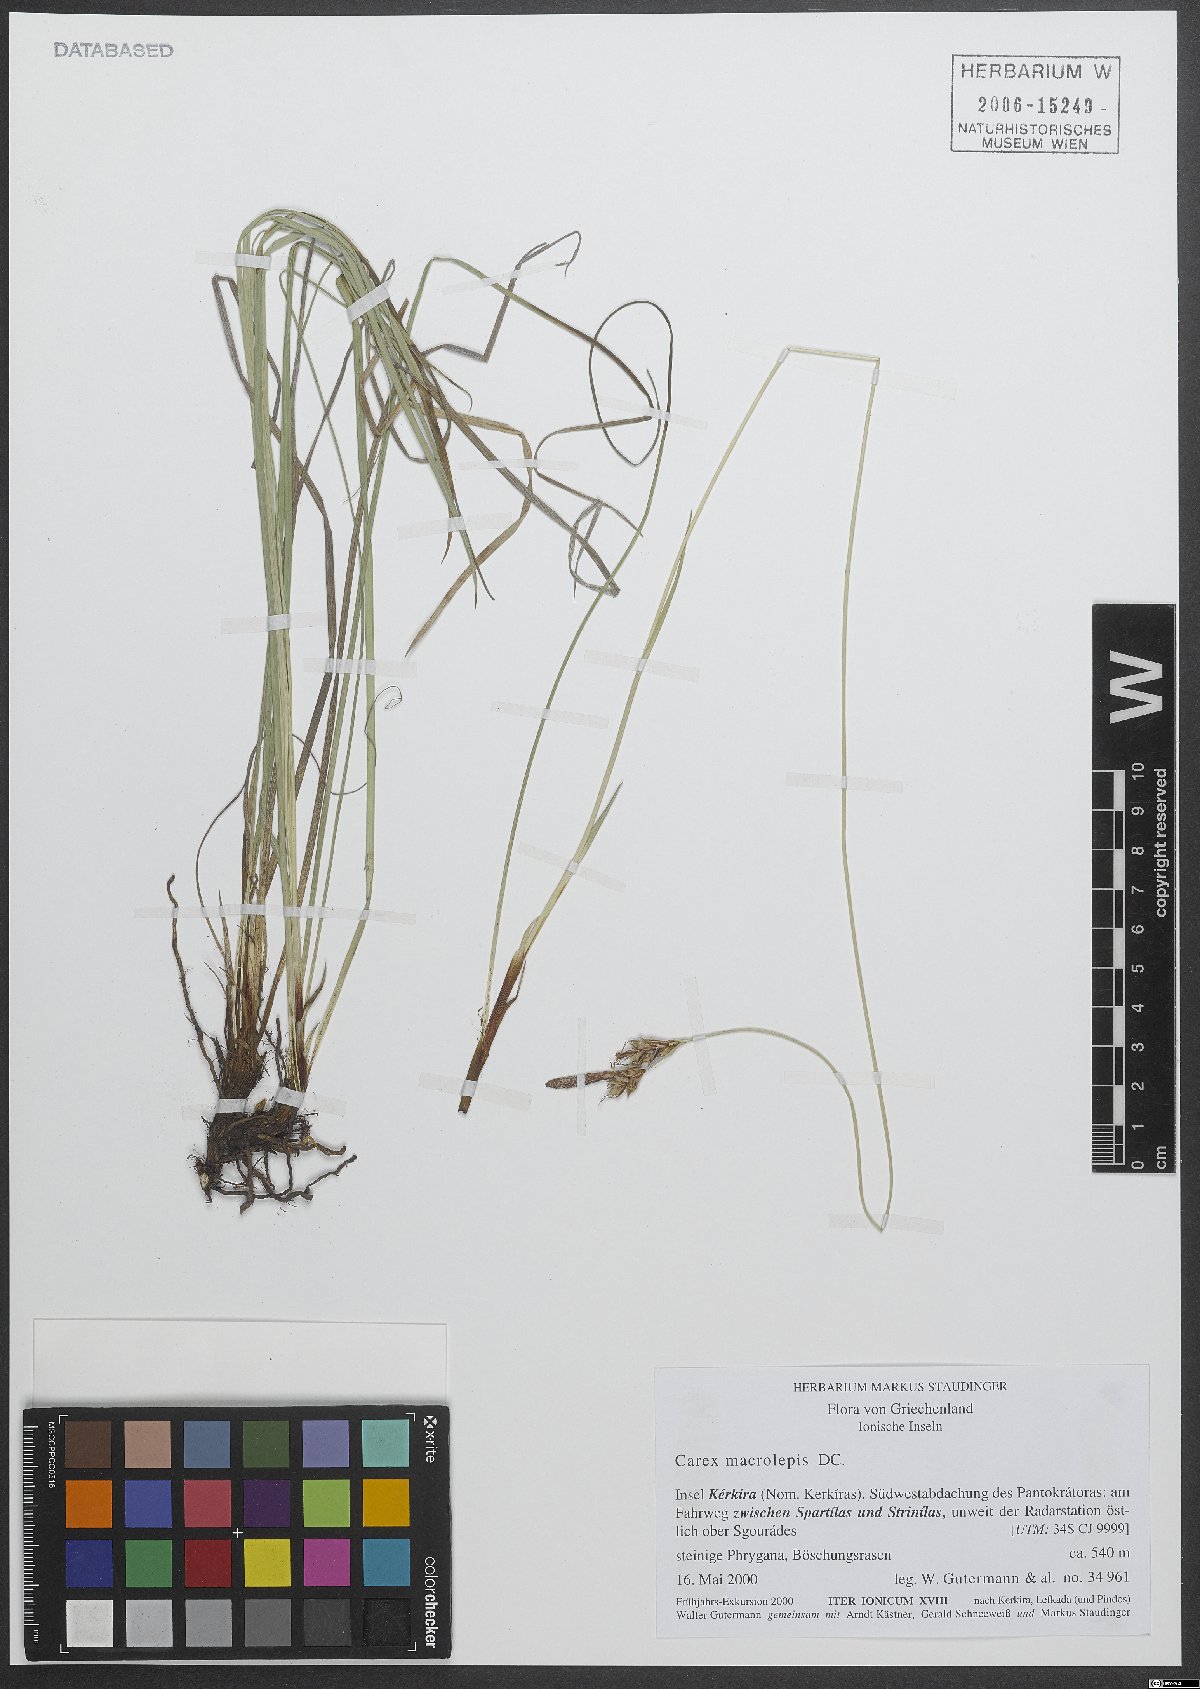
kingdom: Plantae
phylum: Tracheophyta
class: Liliopsida
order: Poales
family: Cyperaceae
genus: Carex
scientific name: Carex macrolepis
